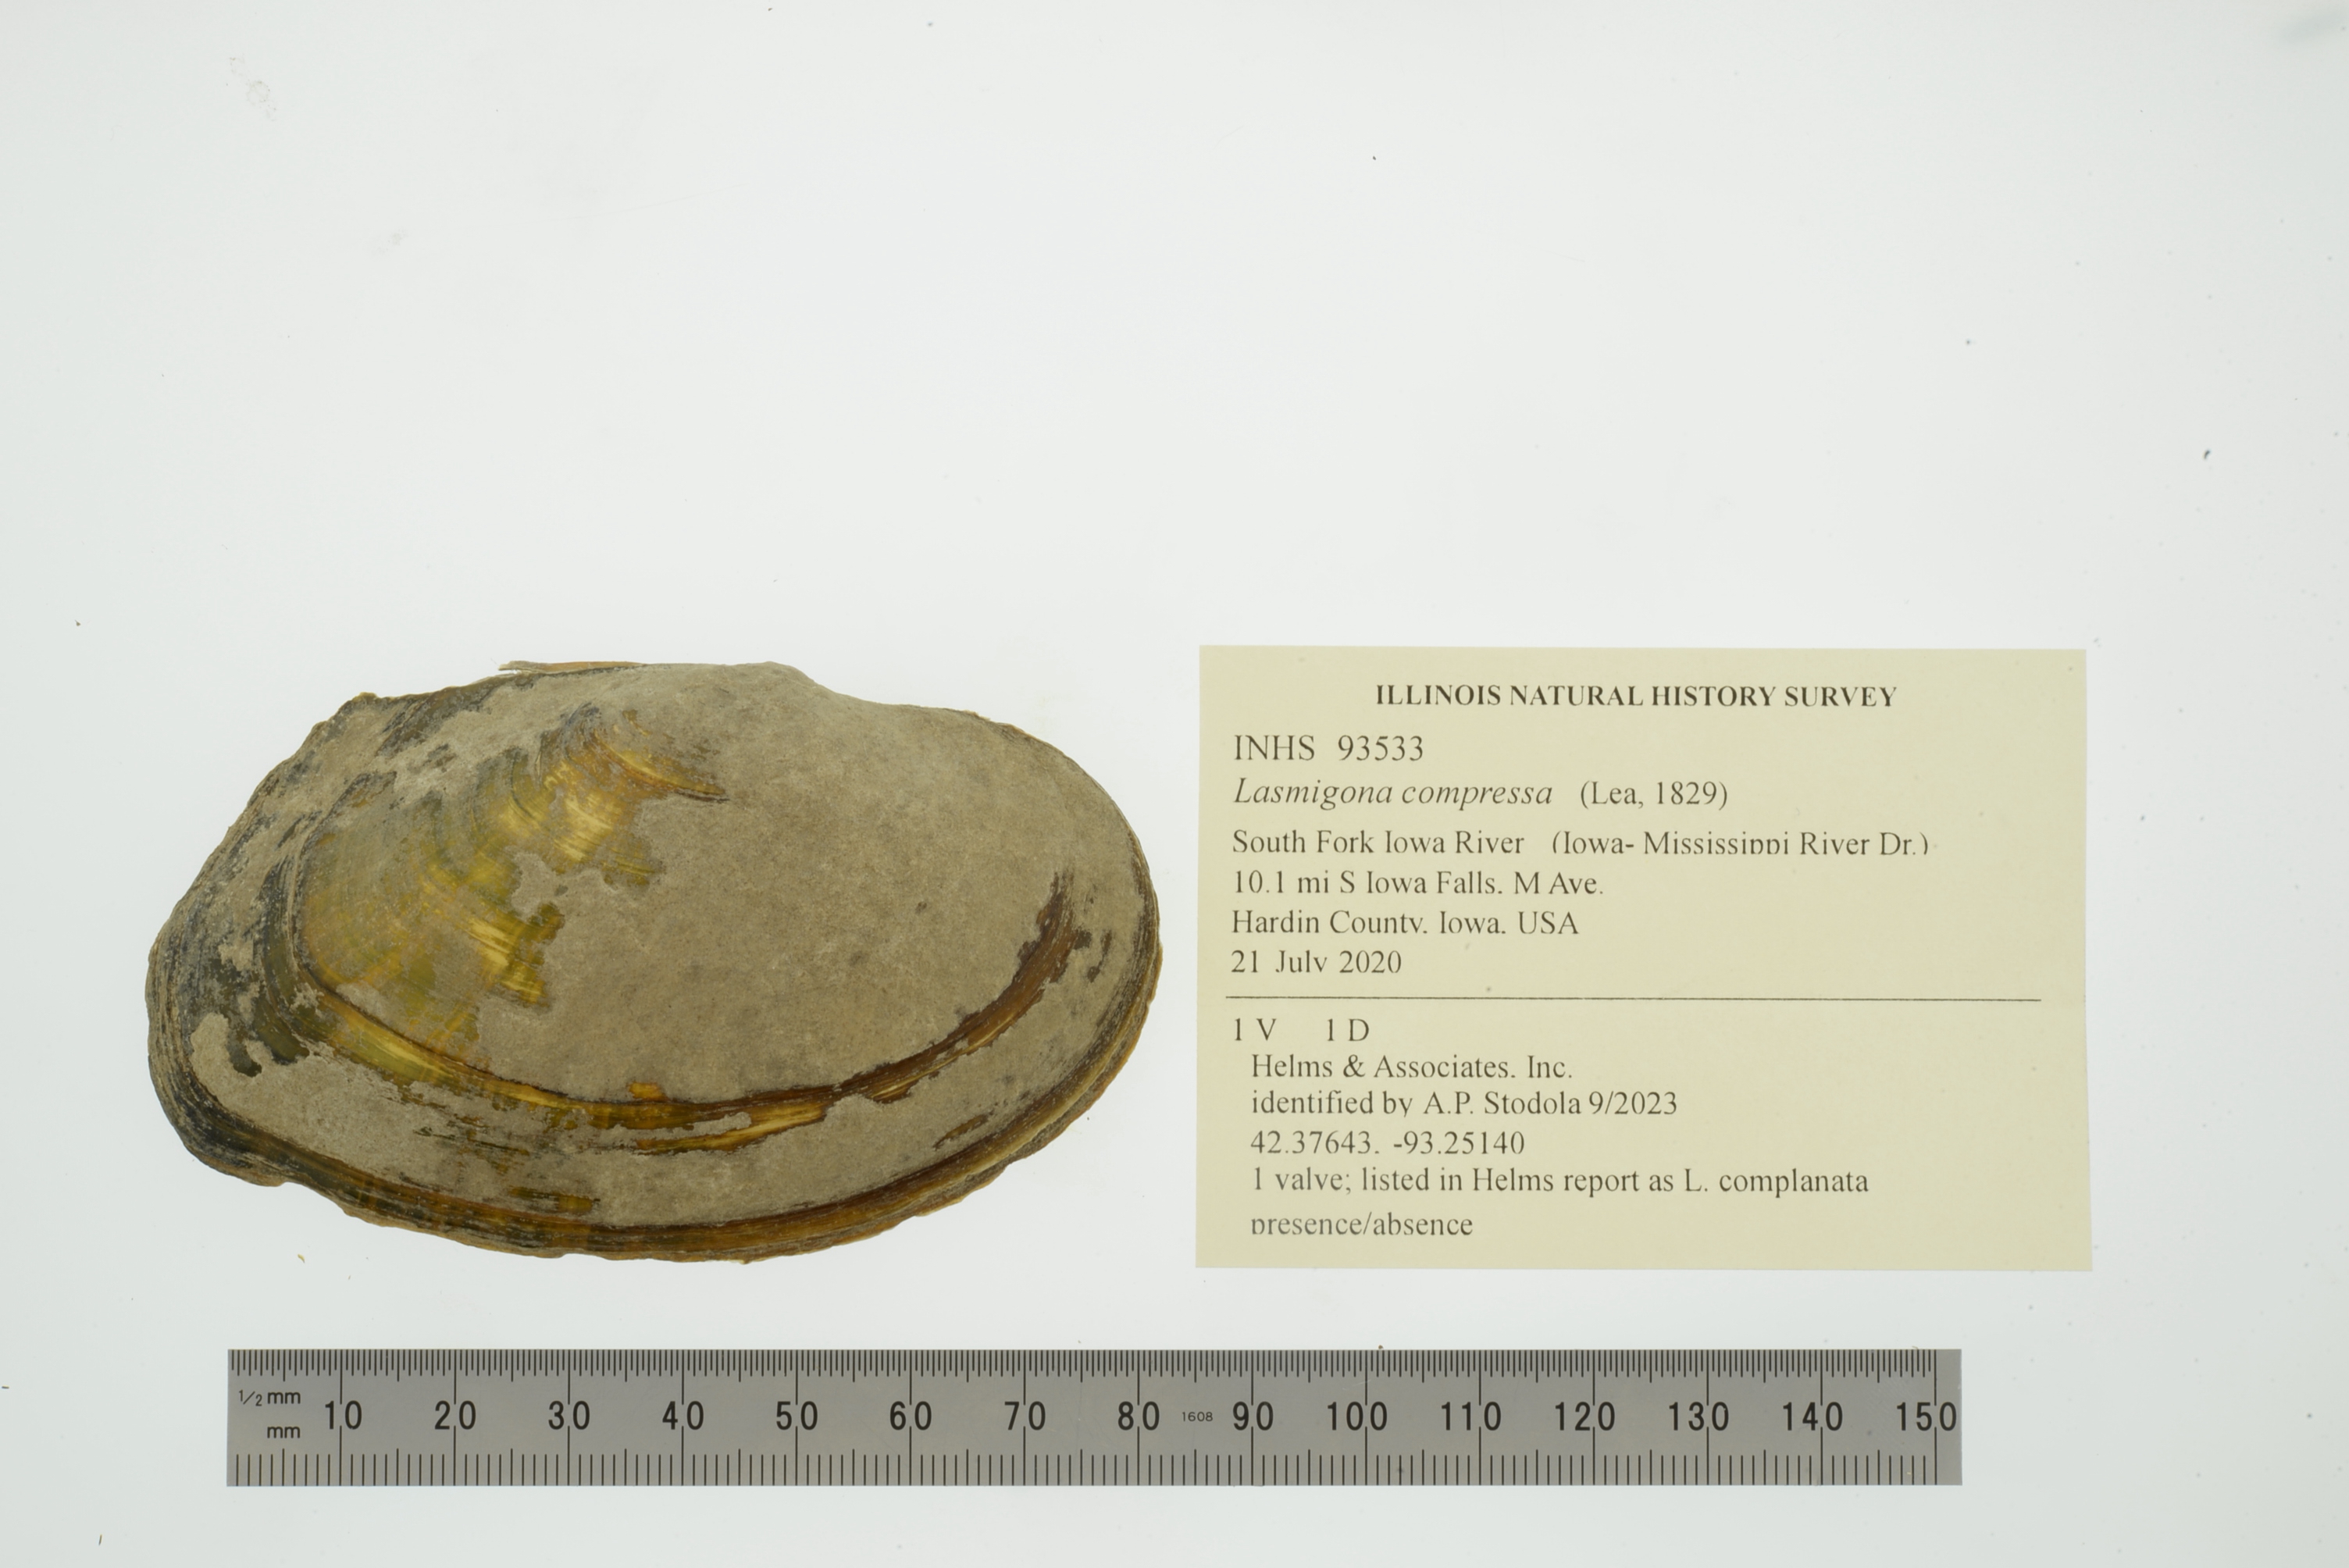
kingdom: Animalia
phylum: Mollusca
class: Bivalvia
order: Unionida
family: Unionidae
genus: Lasmigona
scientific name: Lasmigona compressa
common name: Creek heelsplitter
